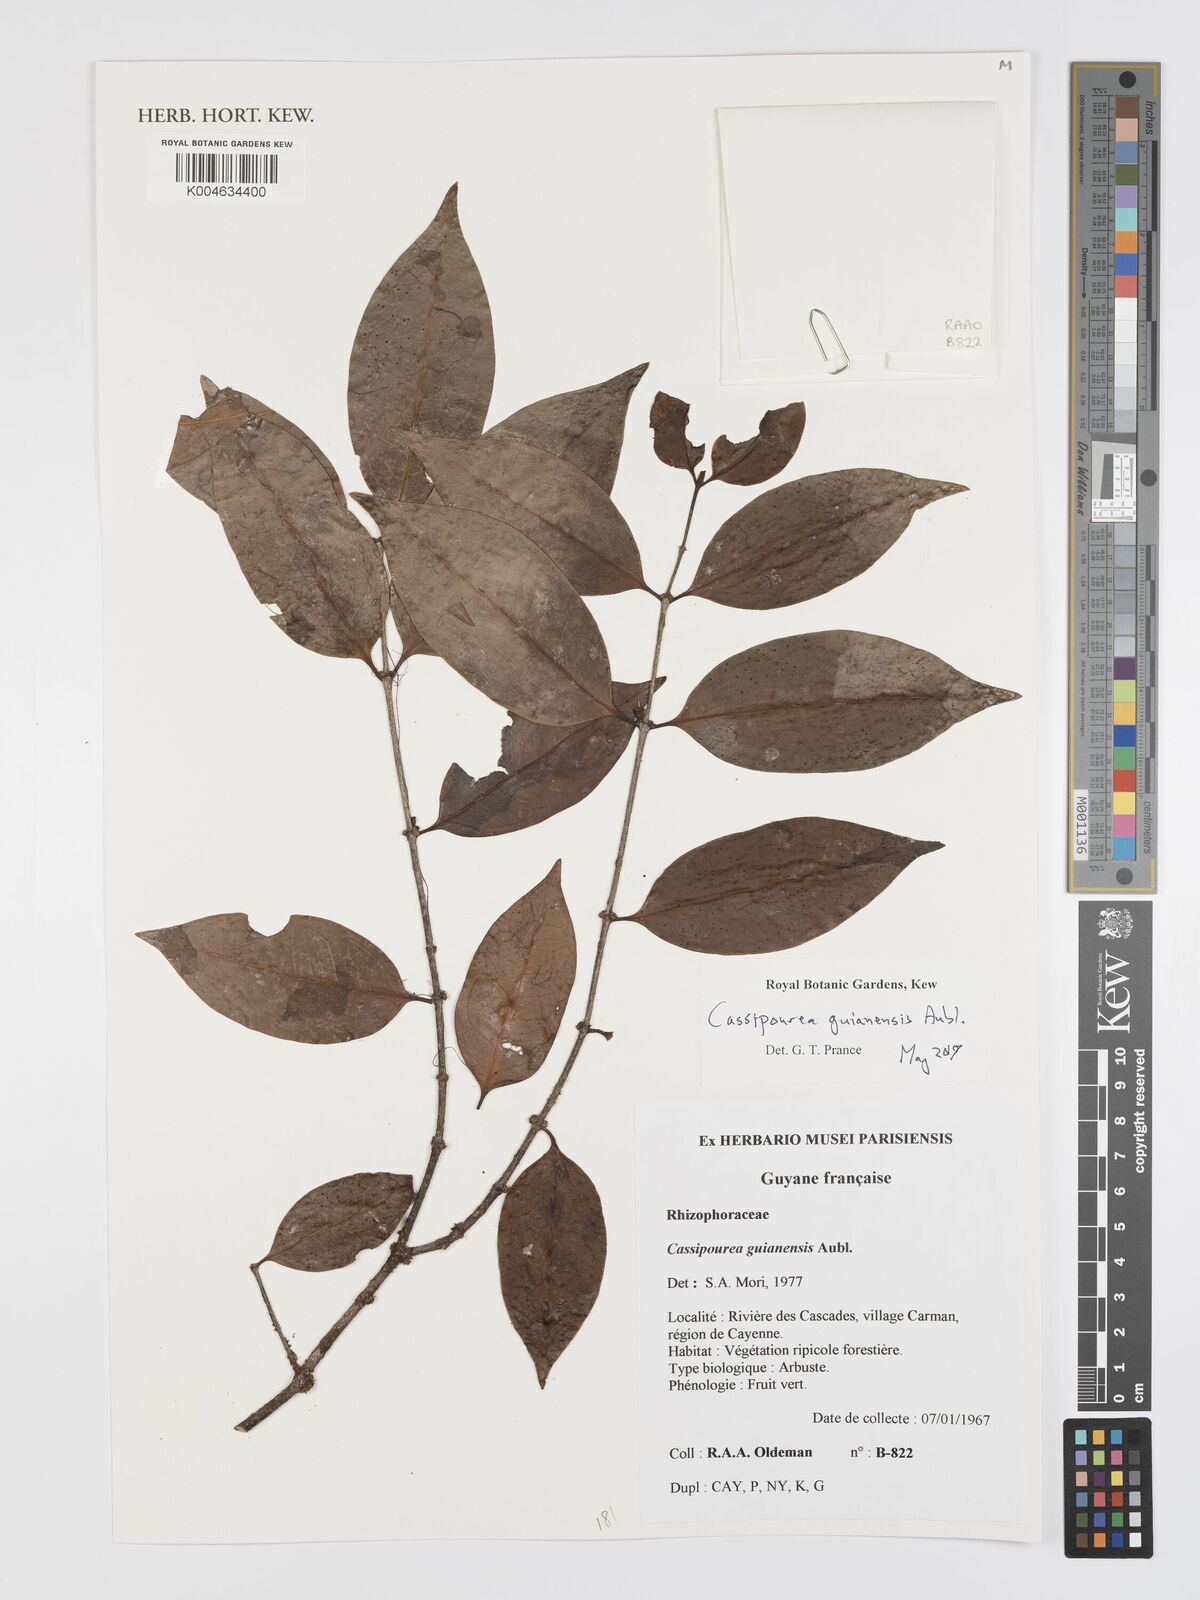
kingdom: Plantae
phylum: Tracheophyta
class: Magnoliopsida
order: Malpighiales
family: Rhizophoraceae
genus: Cassipourea
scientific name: Cassipourea guianensis
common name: Bastard waterwood
